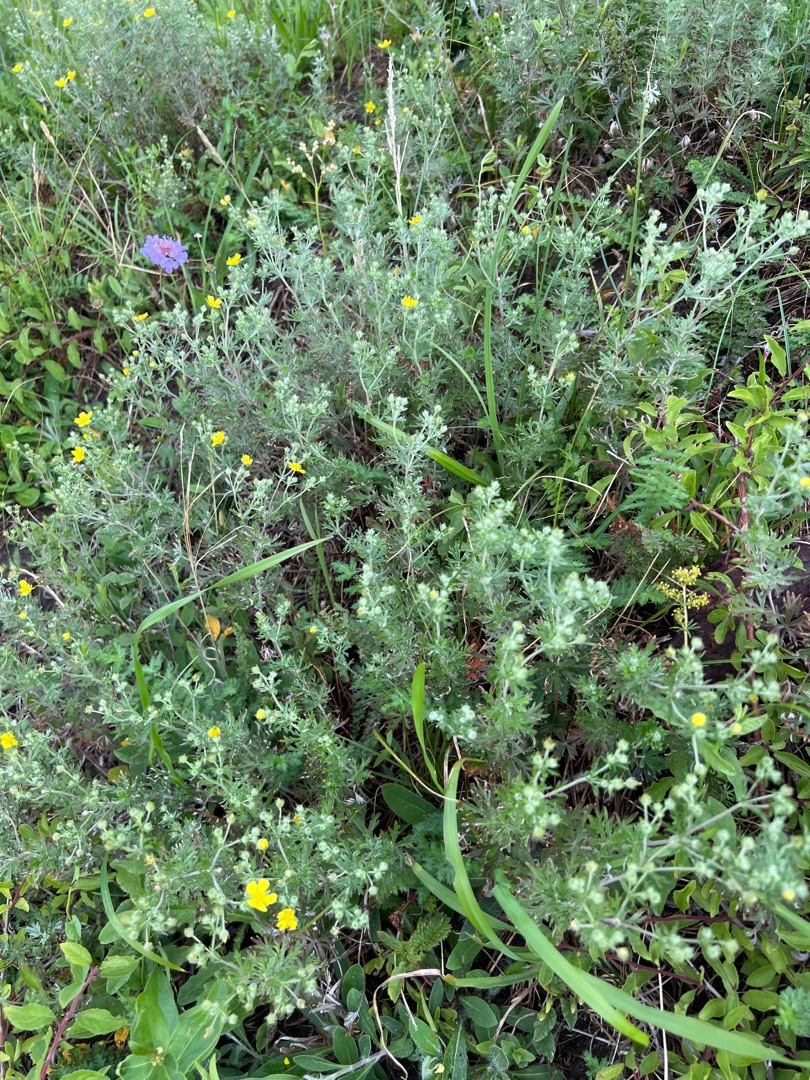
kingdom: Plantae
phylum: Tracheophyta
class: Magnoliopsida
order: Rosales
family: Rosaceae
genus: Potentilla
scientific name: Potentilla argentea
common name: Sølv-potentil
